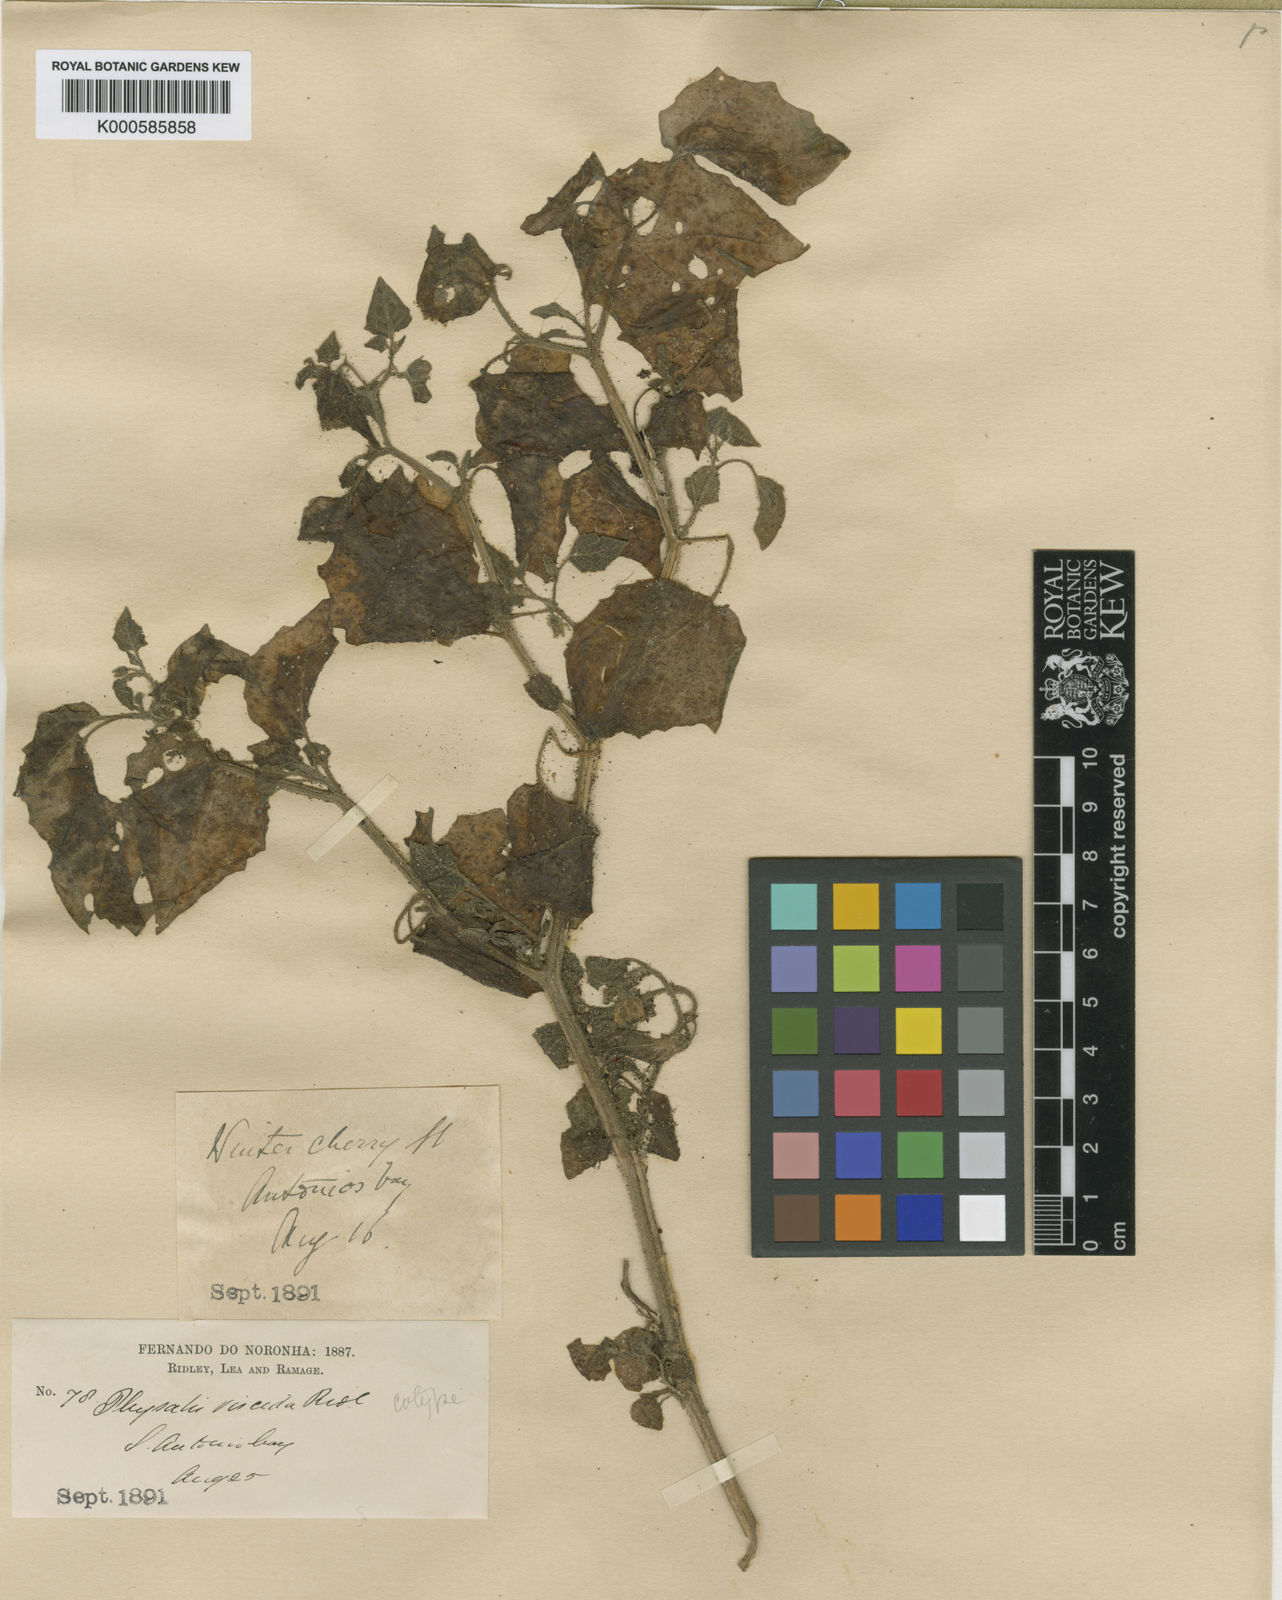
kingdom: Plantae
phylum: Tracheophyta
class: Magnoliopsida
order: Solanales
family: Solanaceae
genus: Physalis
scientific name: Physalis pruinosa
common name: Strawberry tomato
